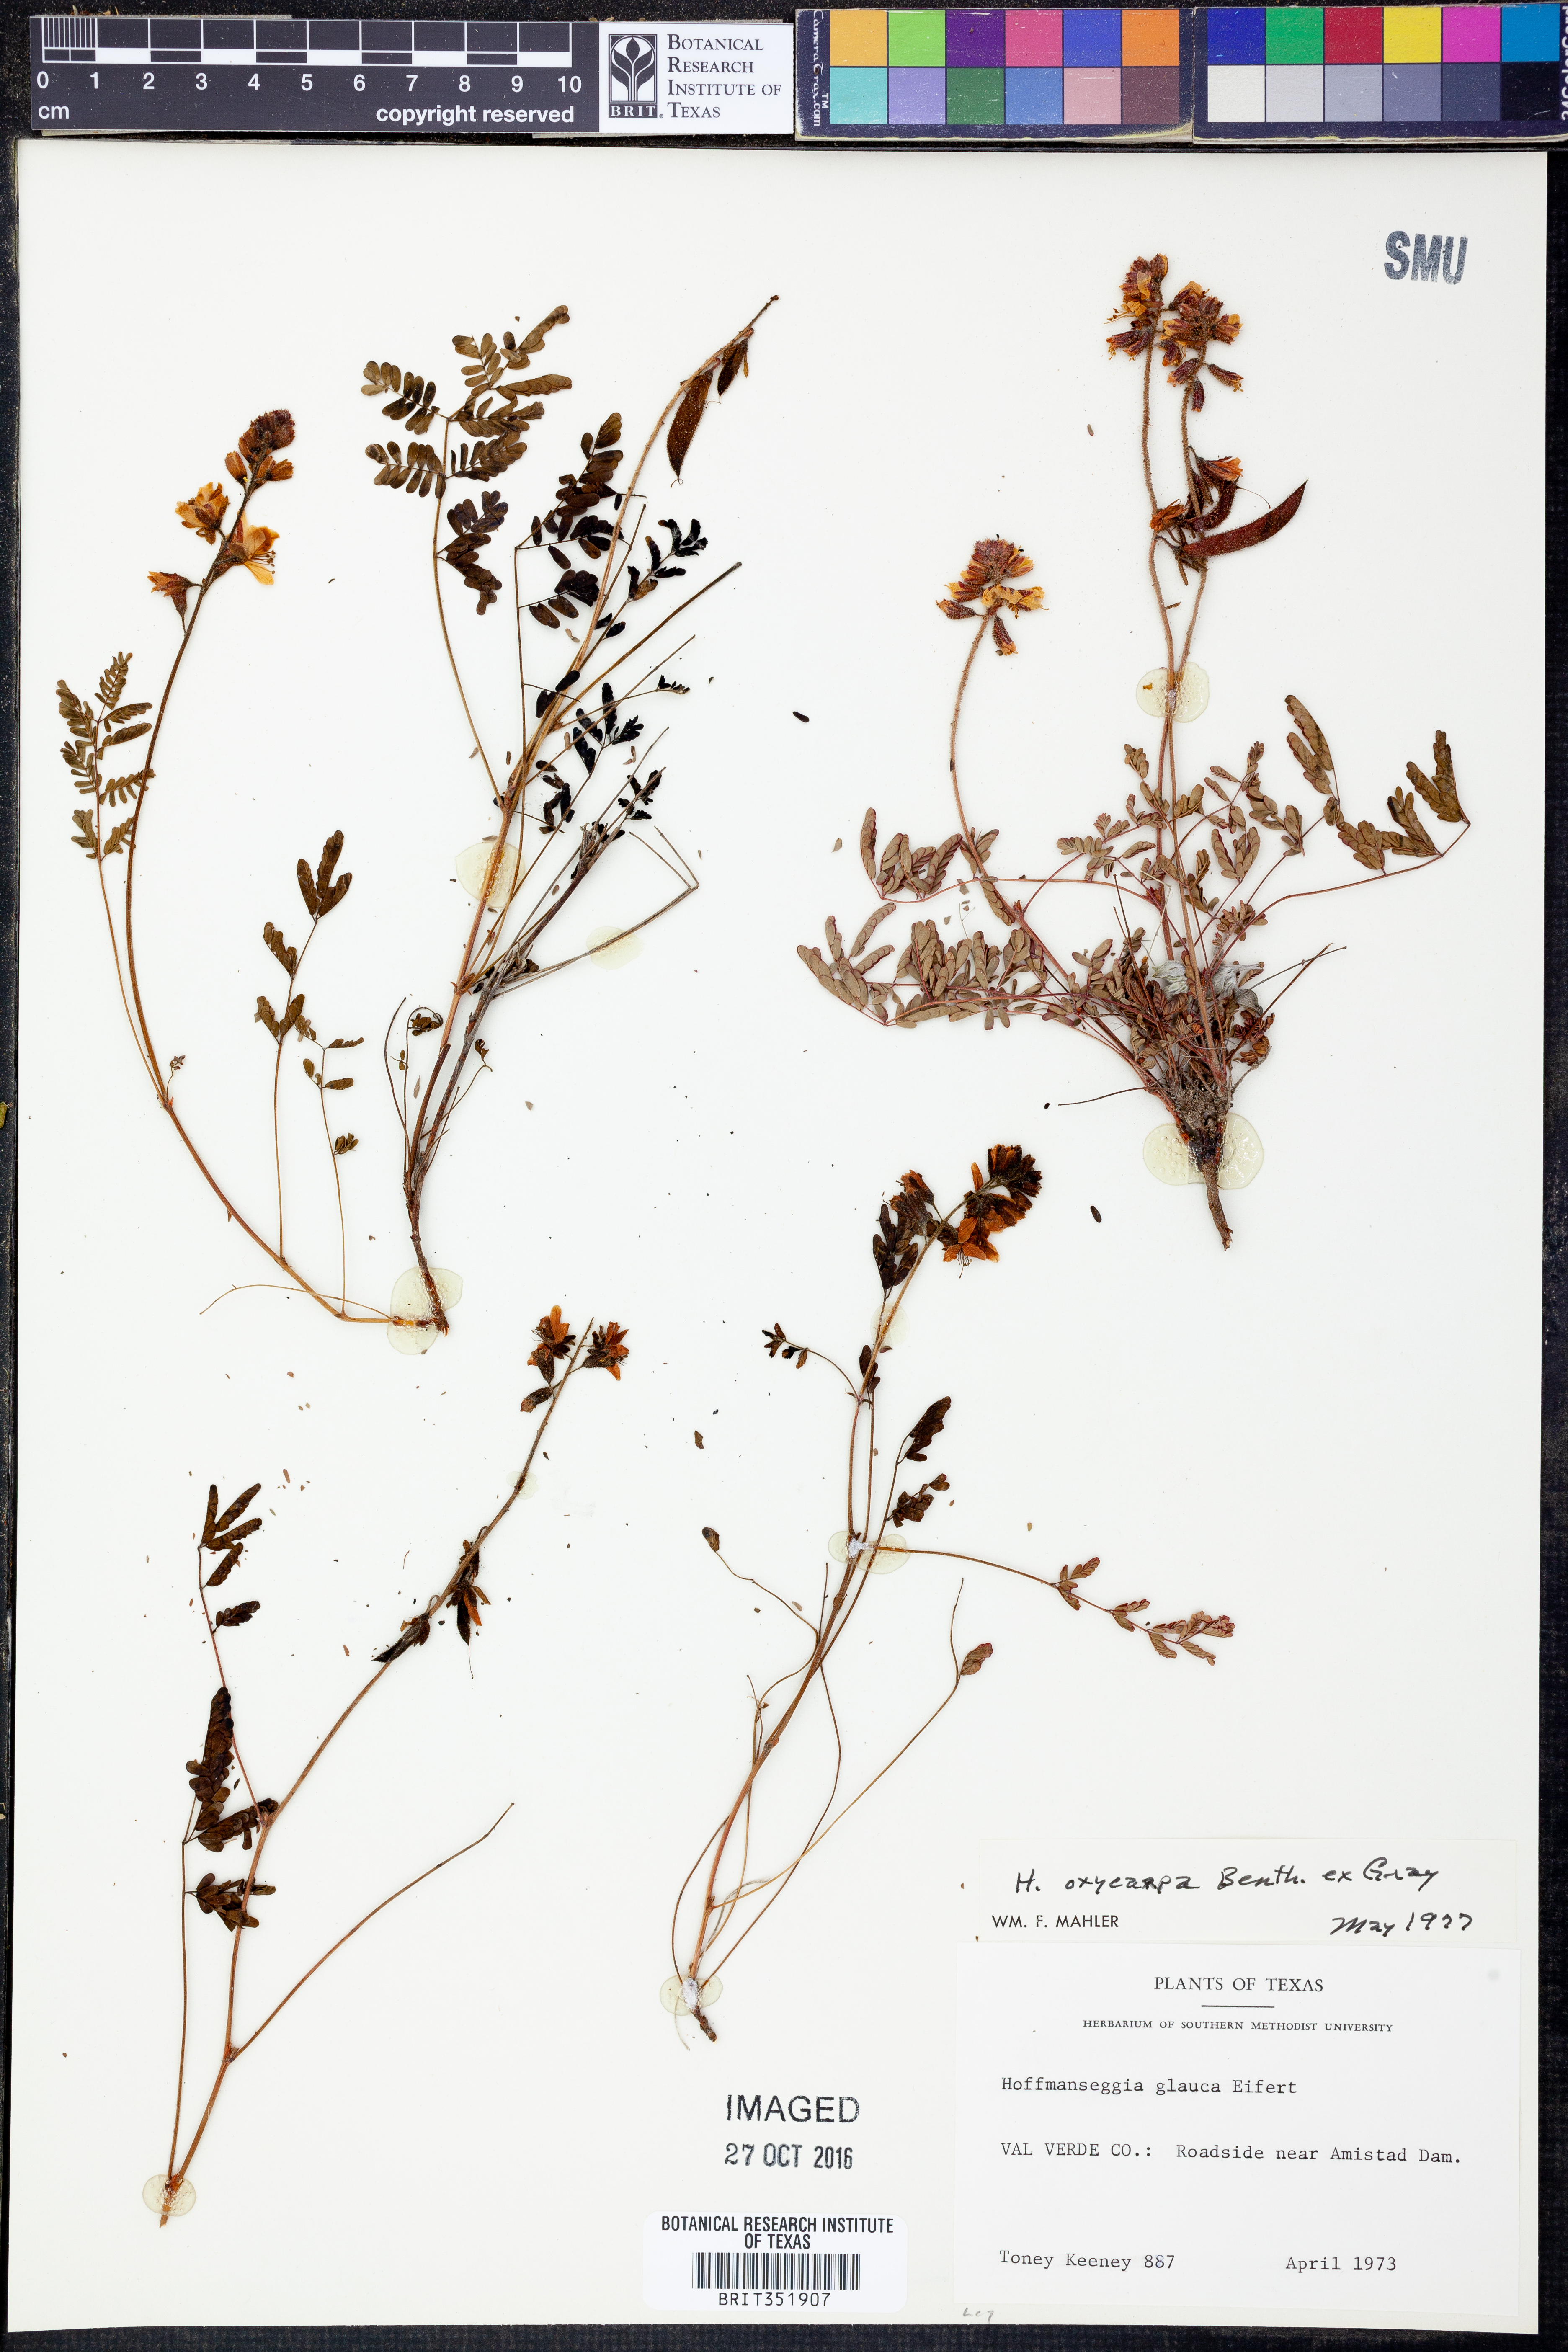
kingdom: Plantae
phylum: Tracheophyta
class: Magnoliopsida
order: Fabales
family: Fabaceae
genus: Hoffmannseggia
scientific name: Hoffmannseggia oxycarpa
